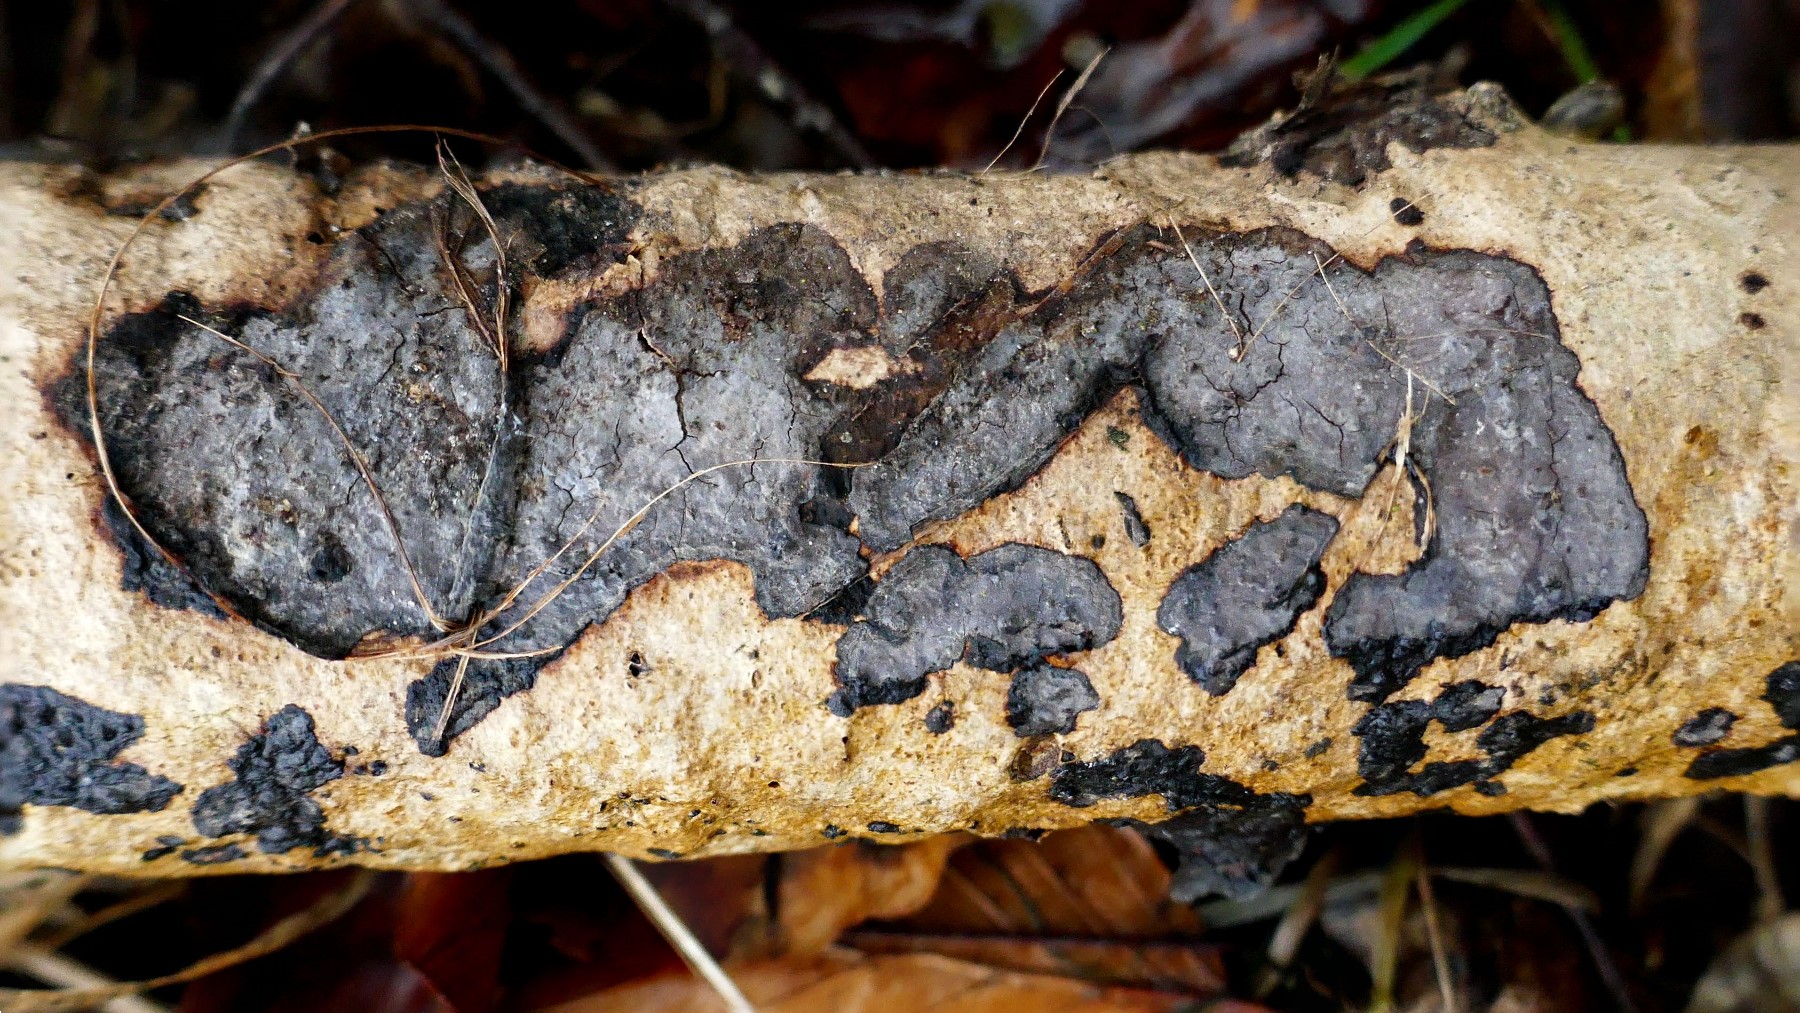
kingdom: Fungi
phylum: Basidiomycota
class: Agaricomycetes
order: Russulales
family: Peniophoraceae
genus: Peniophora
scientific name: Peniophora limitata
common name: mørkrandet voksskind
